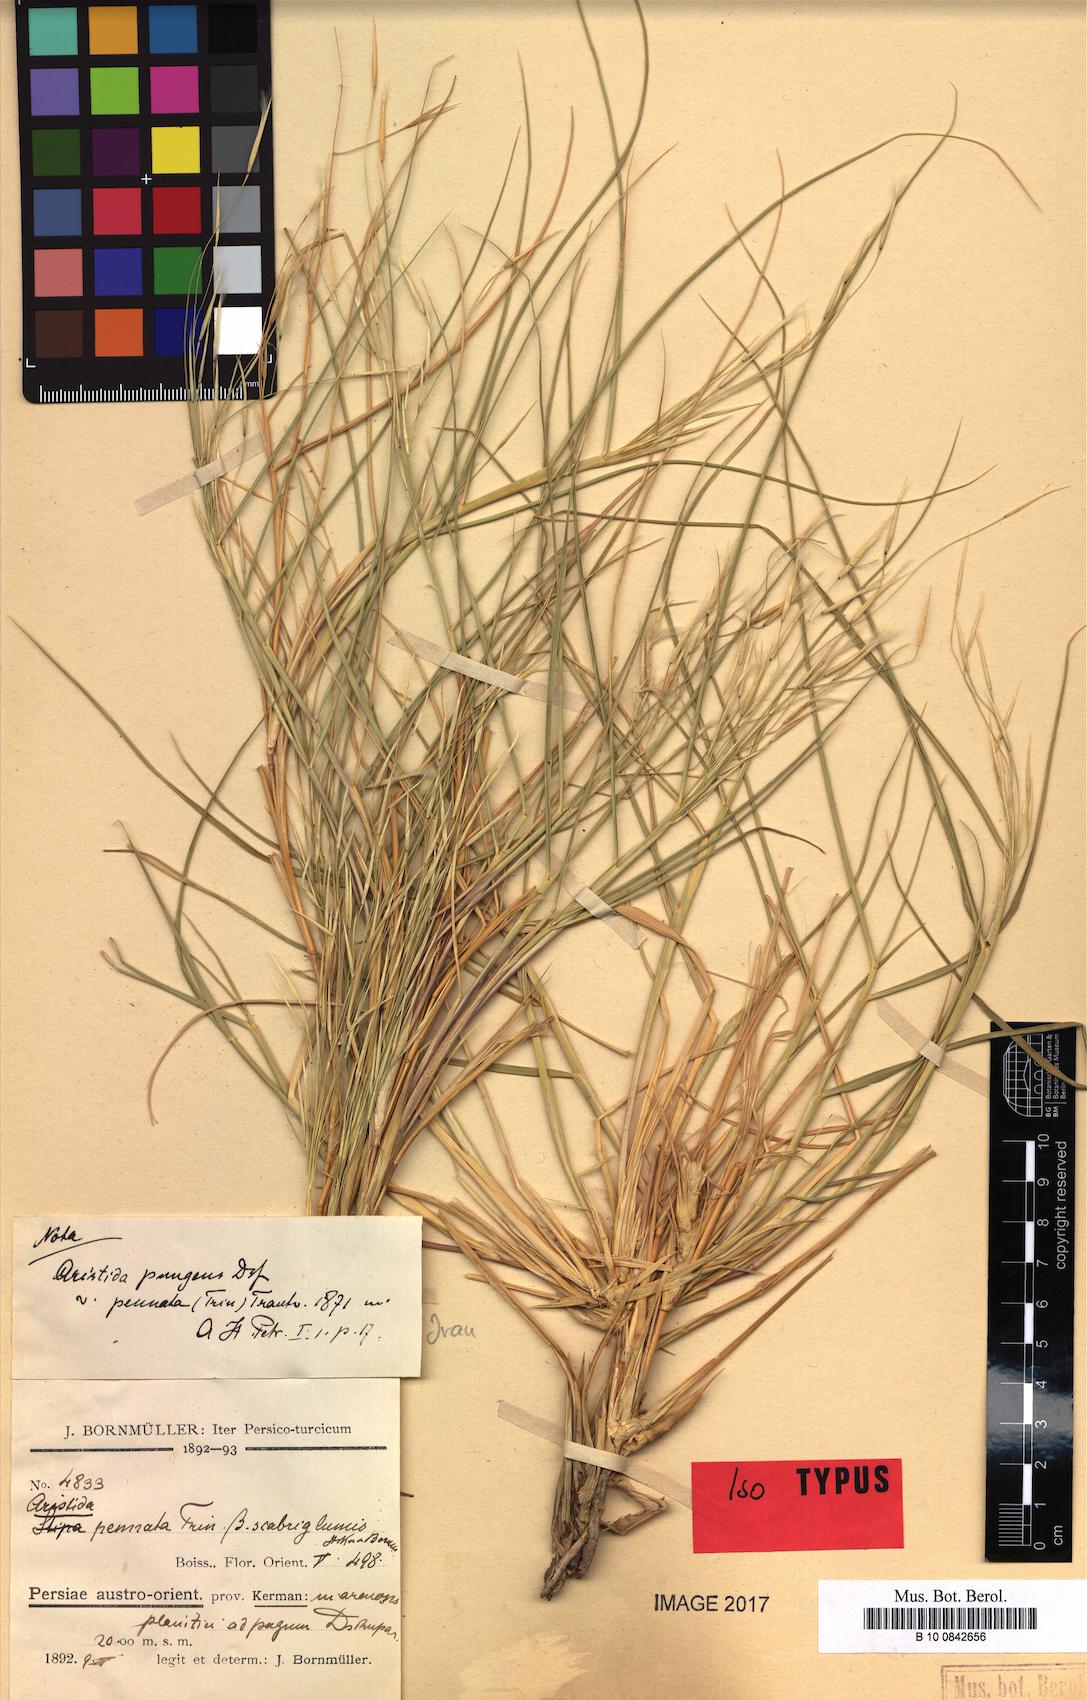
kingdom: Plantae
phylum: Tracheophyta
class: Liliopsida
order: Poales
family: Poaceae
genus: Stipagrostis
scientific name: Stipagrostis pennata
